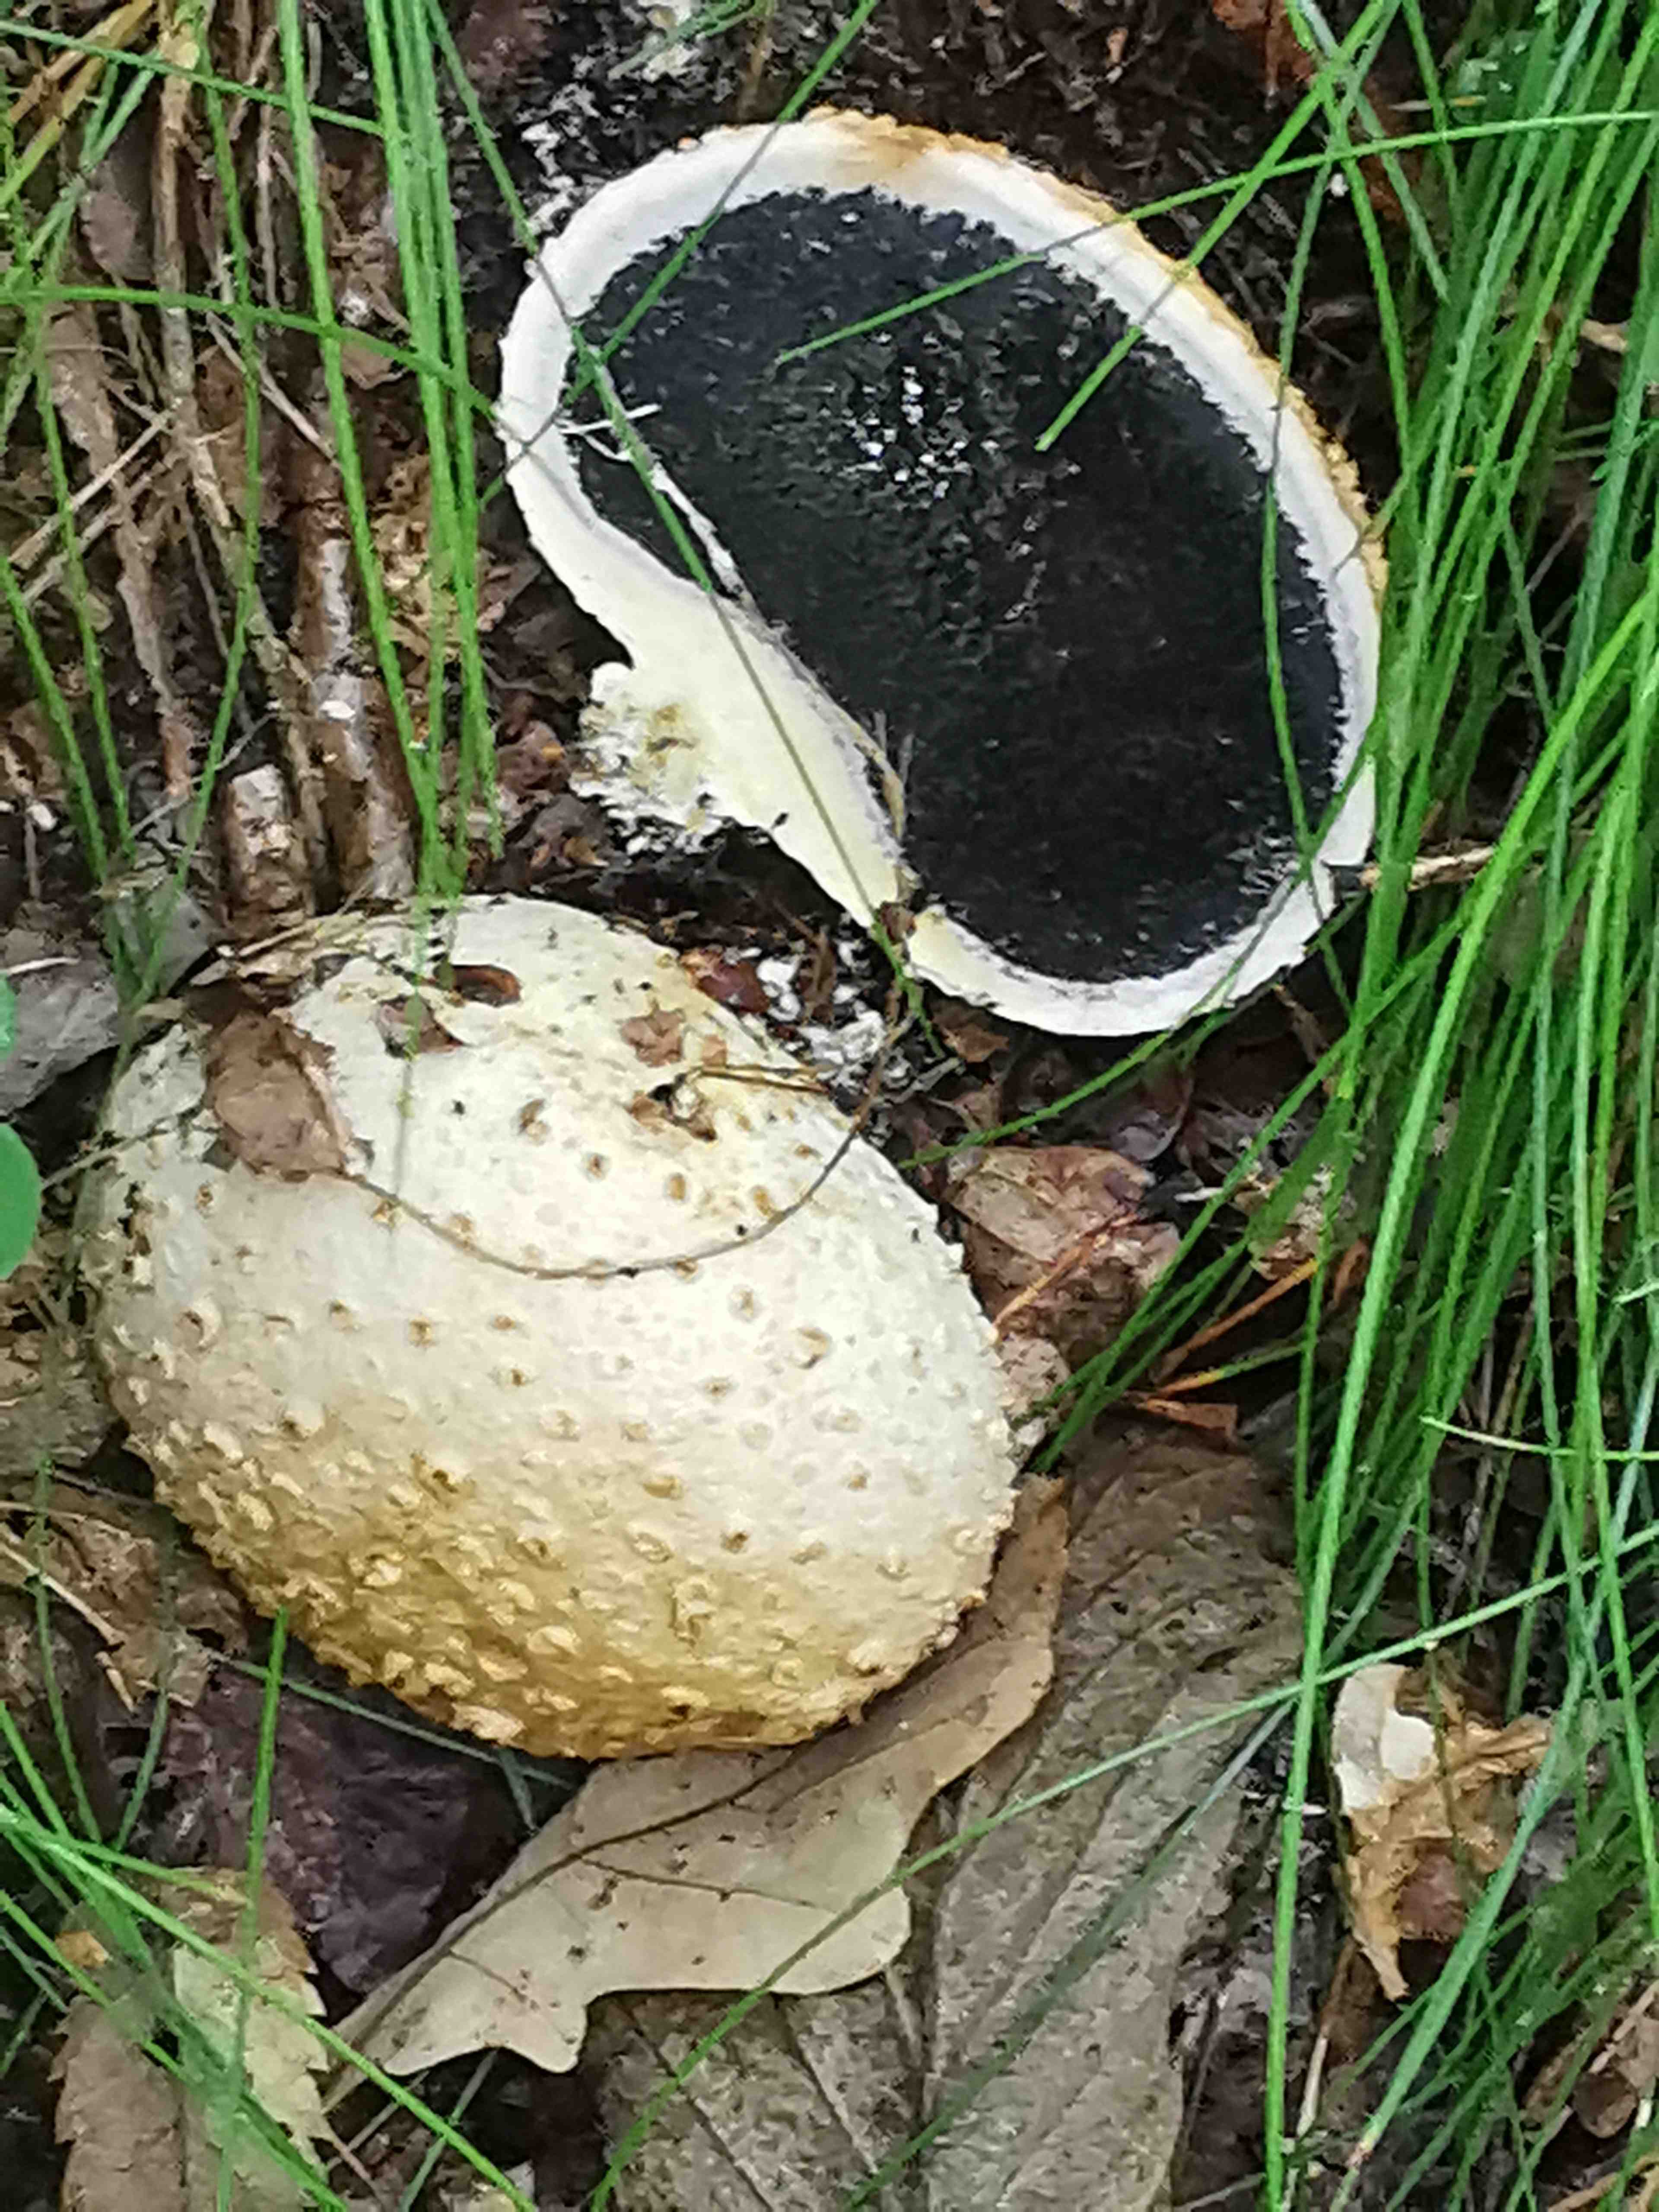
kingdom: Fungi
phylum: Basidiomycota
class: Agaricomycetes
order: Boletales
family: Sclerodermataceae
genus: Scleroderma
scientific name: Scleroderma citrinum
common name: almindelig bruskbold
